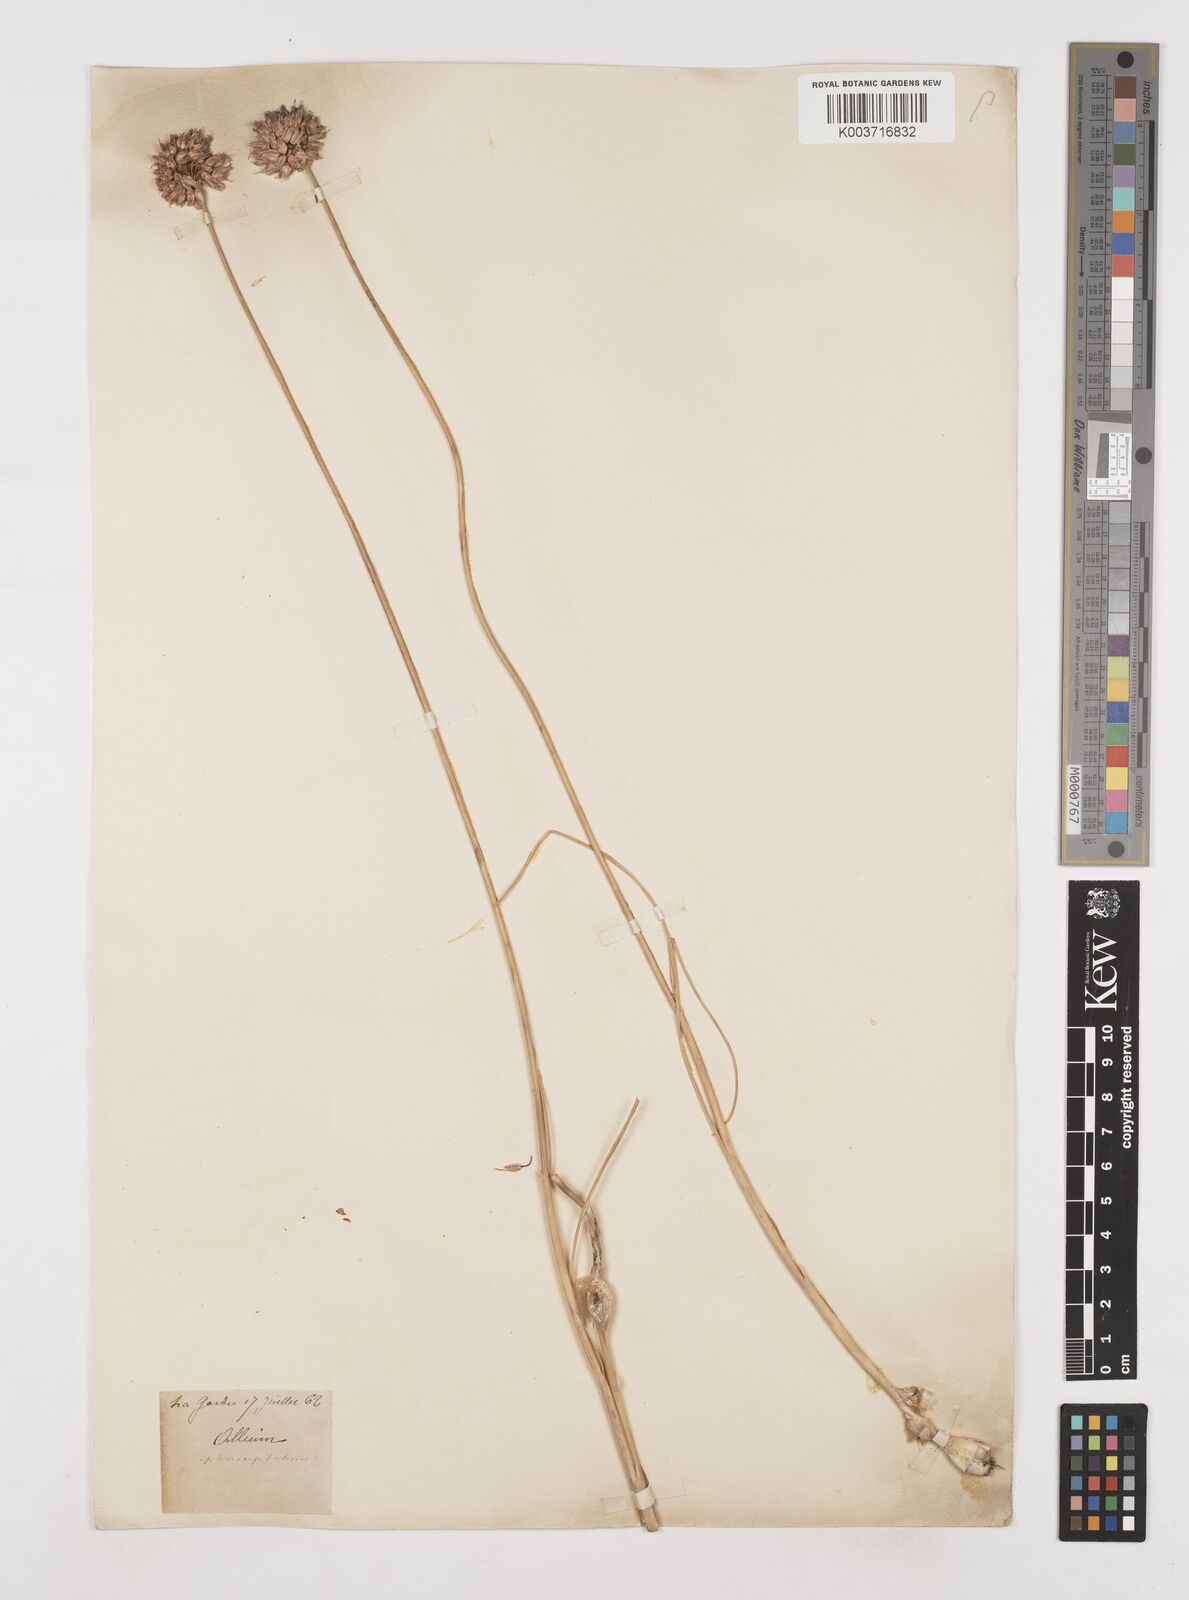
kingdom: Plantae
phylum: Tracheophyta
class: Liliopsida
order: Asparagales
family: Amaryllidaceae
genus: Allium
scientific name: Allium sphaerocephalon
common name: Round-headed leek
